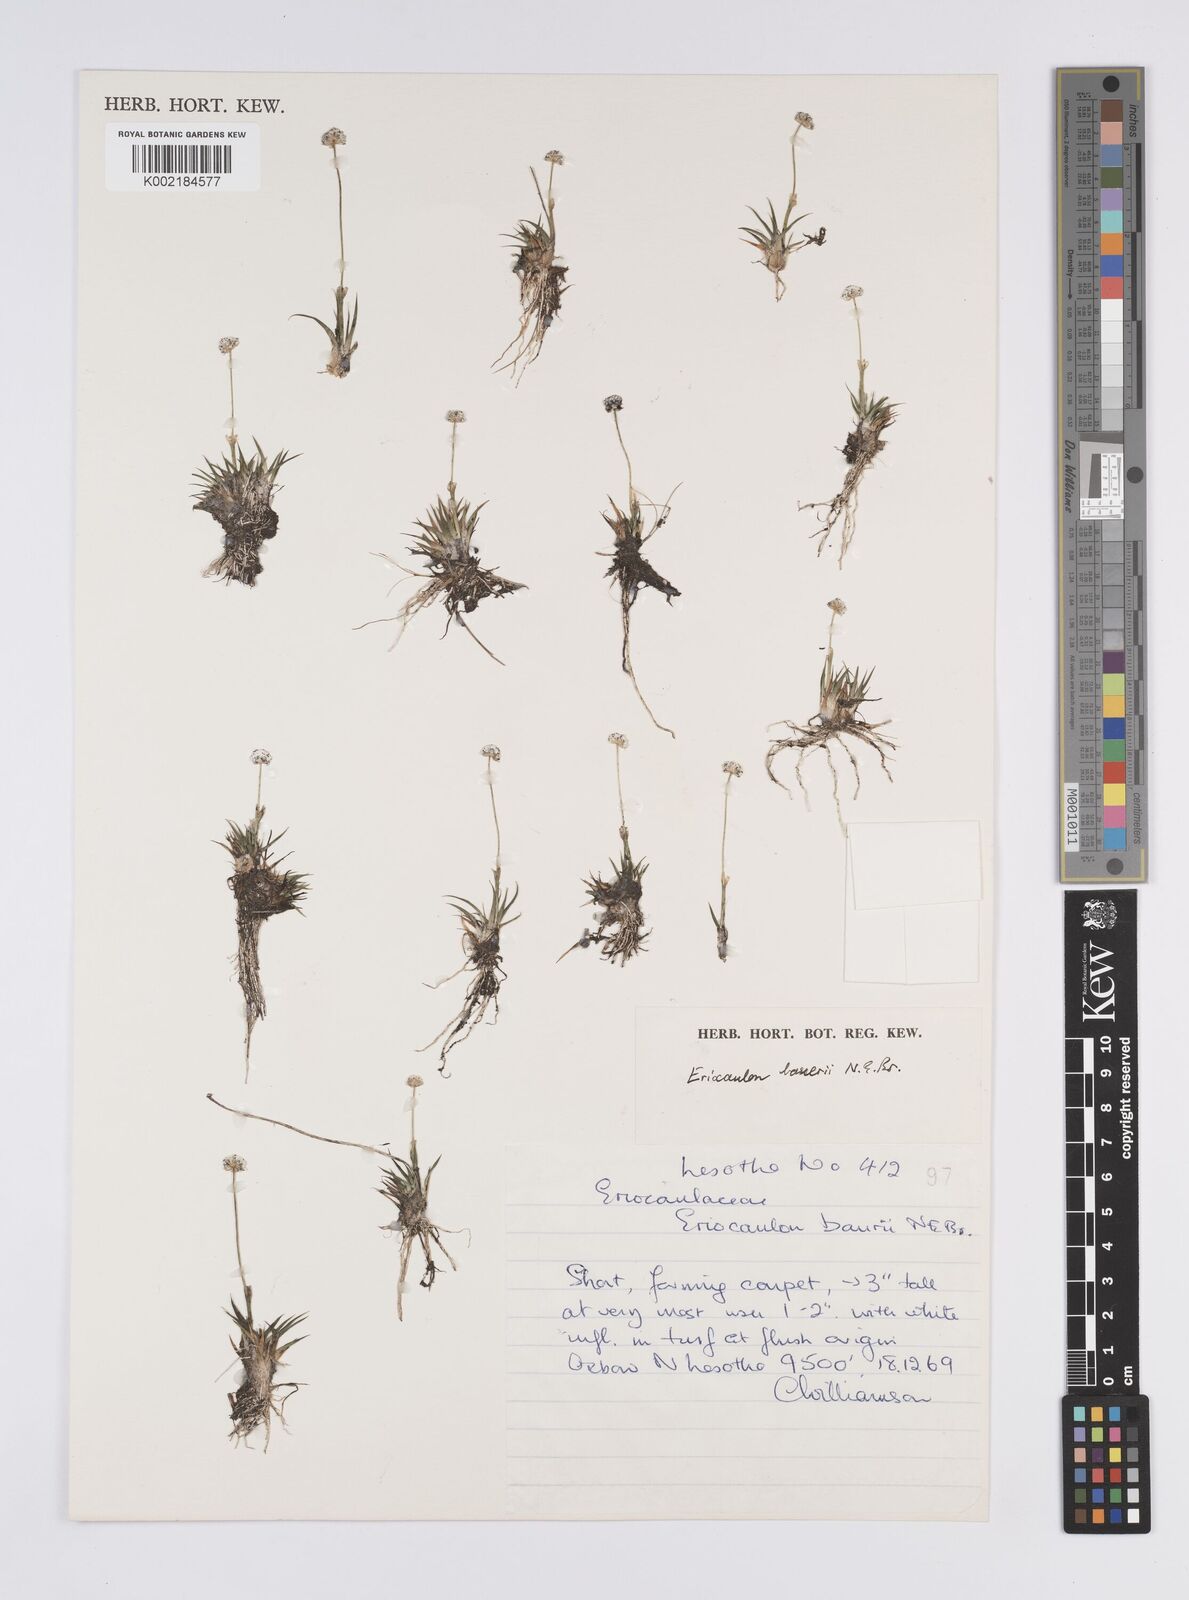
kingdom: Plantae
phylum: Tracheophyta
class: Liliopsida
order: Poales
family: Eriocaulaceae
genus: Eriocaulon
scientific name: Eriocaulon sonderianum
